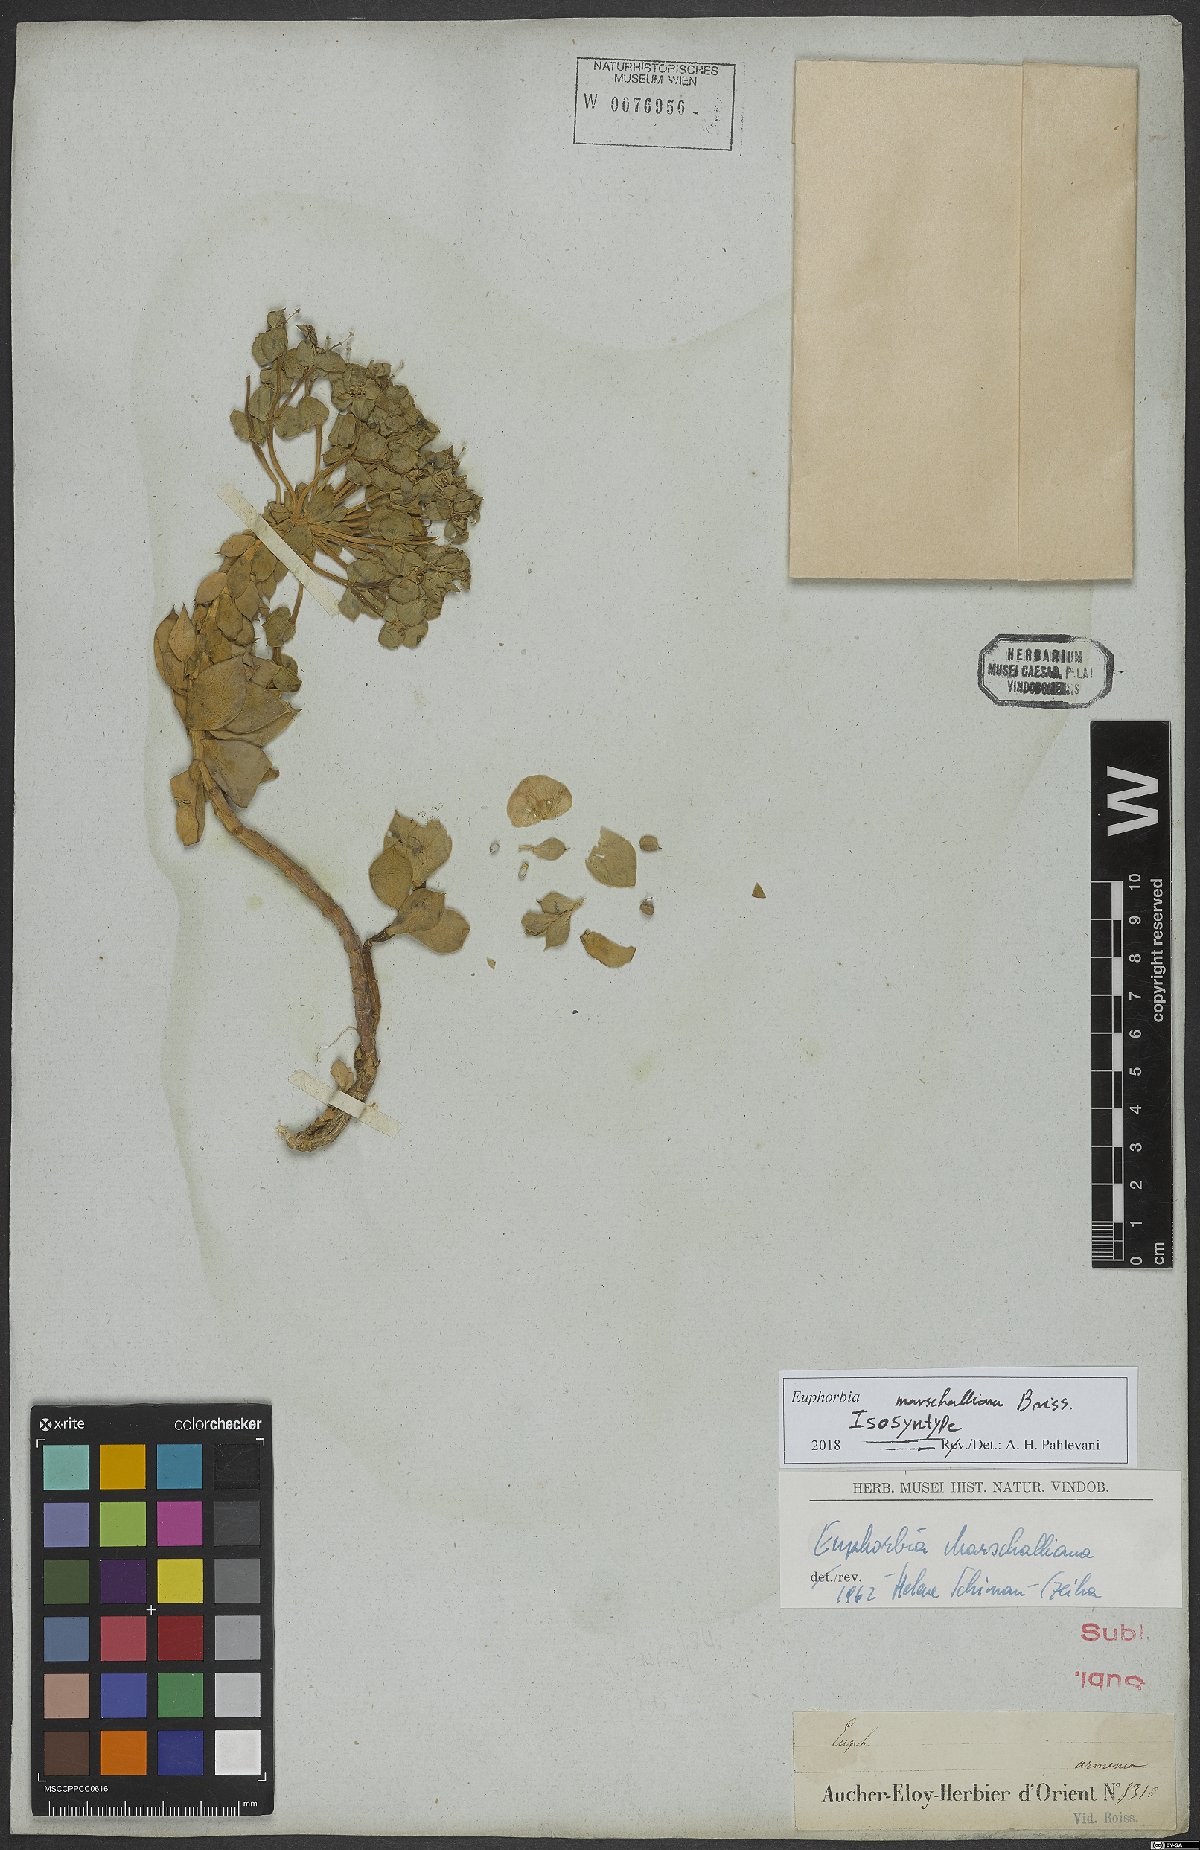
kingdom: Plantae
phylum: Tracheophyta
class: Magnoliopsida
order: Malpighiales
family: Euphorbiaceae
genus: Euphorbia
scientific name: Euphorbia marschalliana
